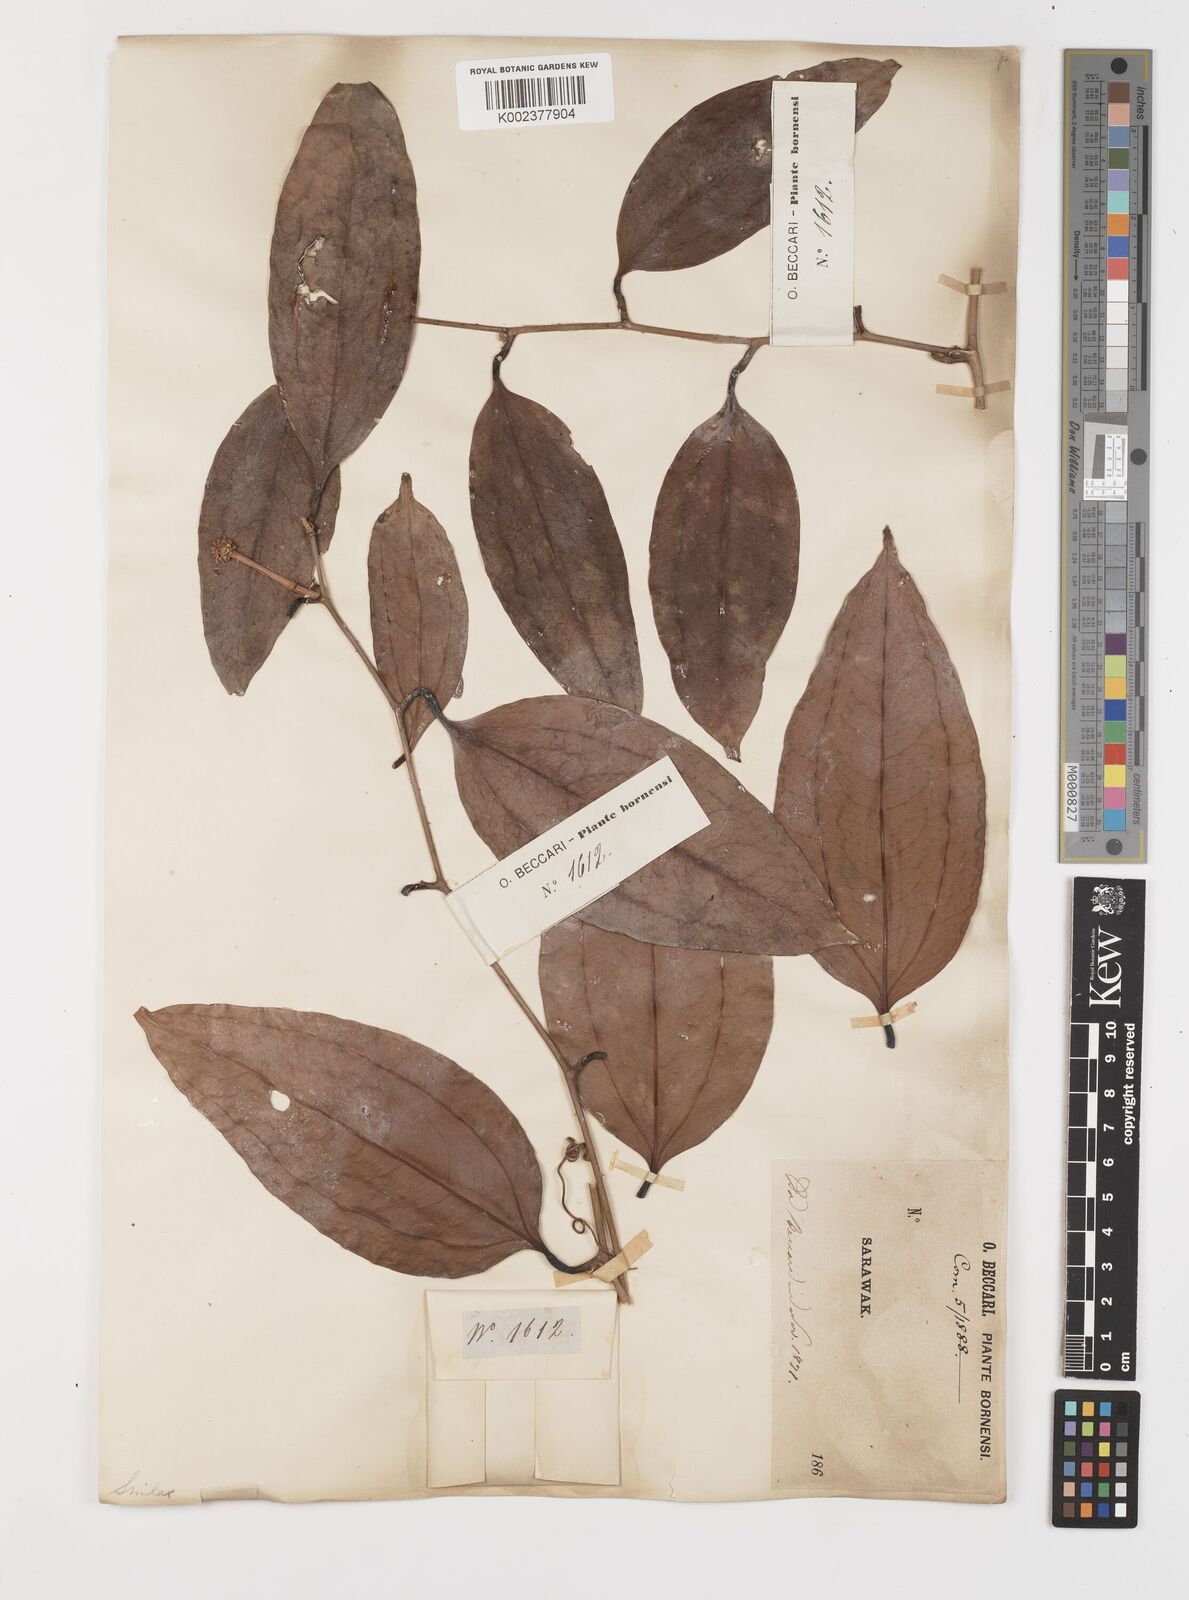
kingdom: Plantae
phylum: Tracheophyta
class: Liliopsida
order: Liliales
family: Smilacaceae
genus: Smilax
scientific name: Smilax
